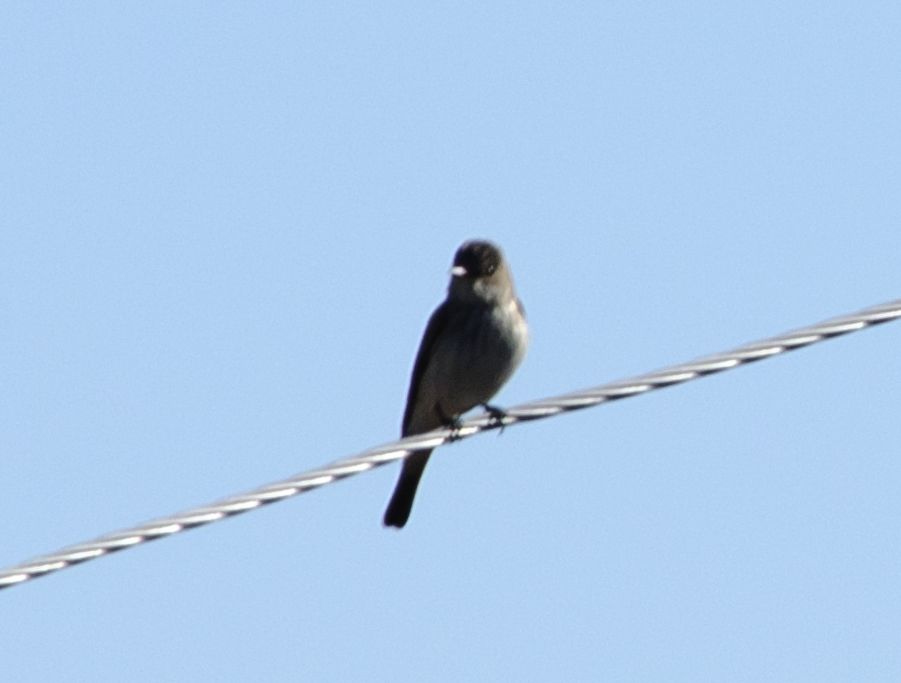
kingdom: Animalia
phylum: Chordata
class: Aves
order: Passeriformes
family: Muscicapidae
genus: Muscicapa
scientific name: Muscicapa striata
